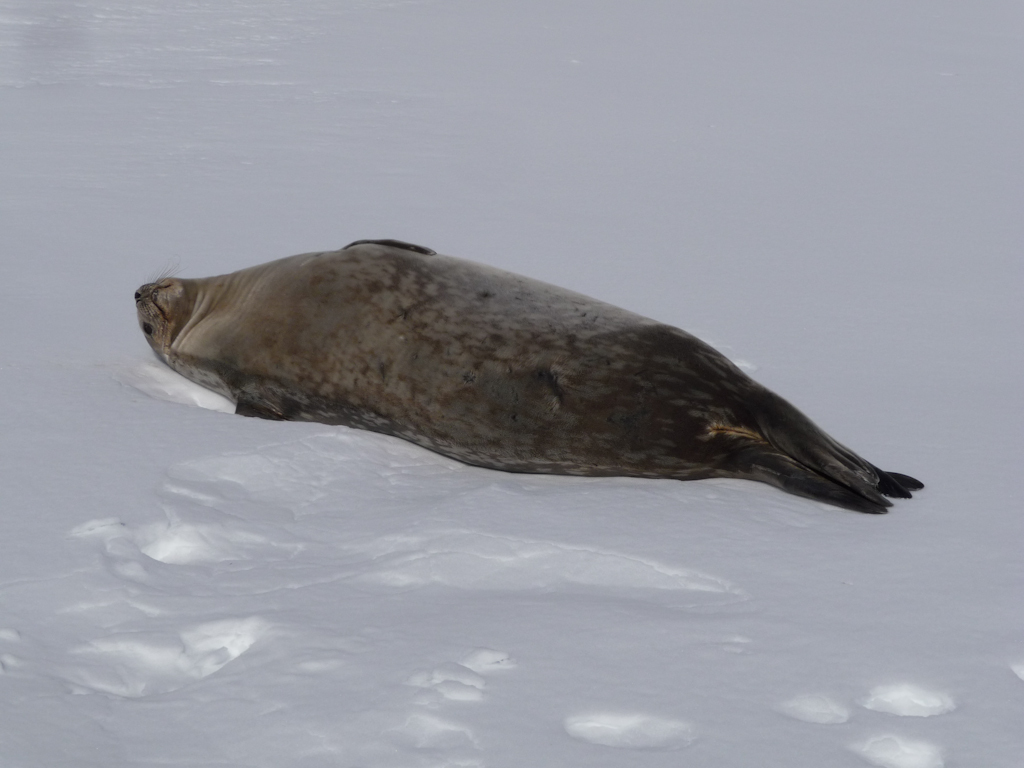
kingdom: Animalia
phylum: Chordata
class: Mammalia
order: Carnivora
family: Phocidae
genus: Leptonychotes
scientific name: Leptonychotes weddellii
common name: Weddell Seal
